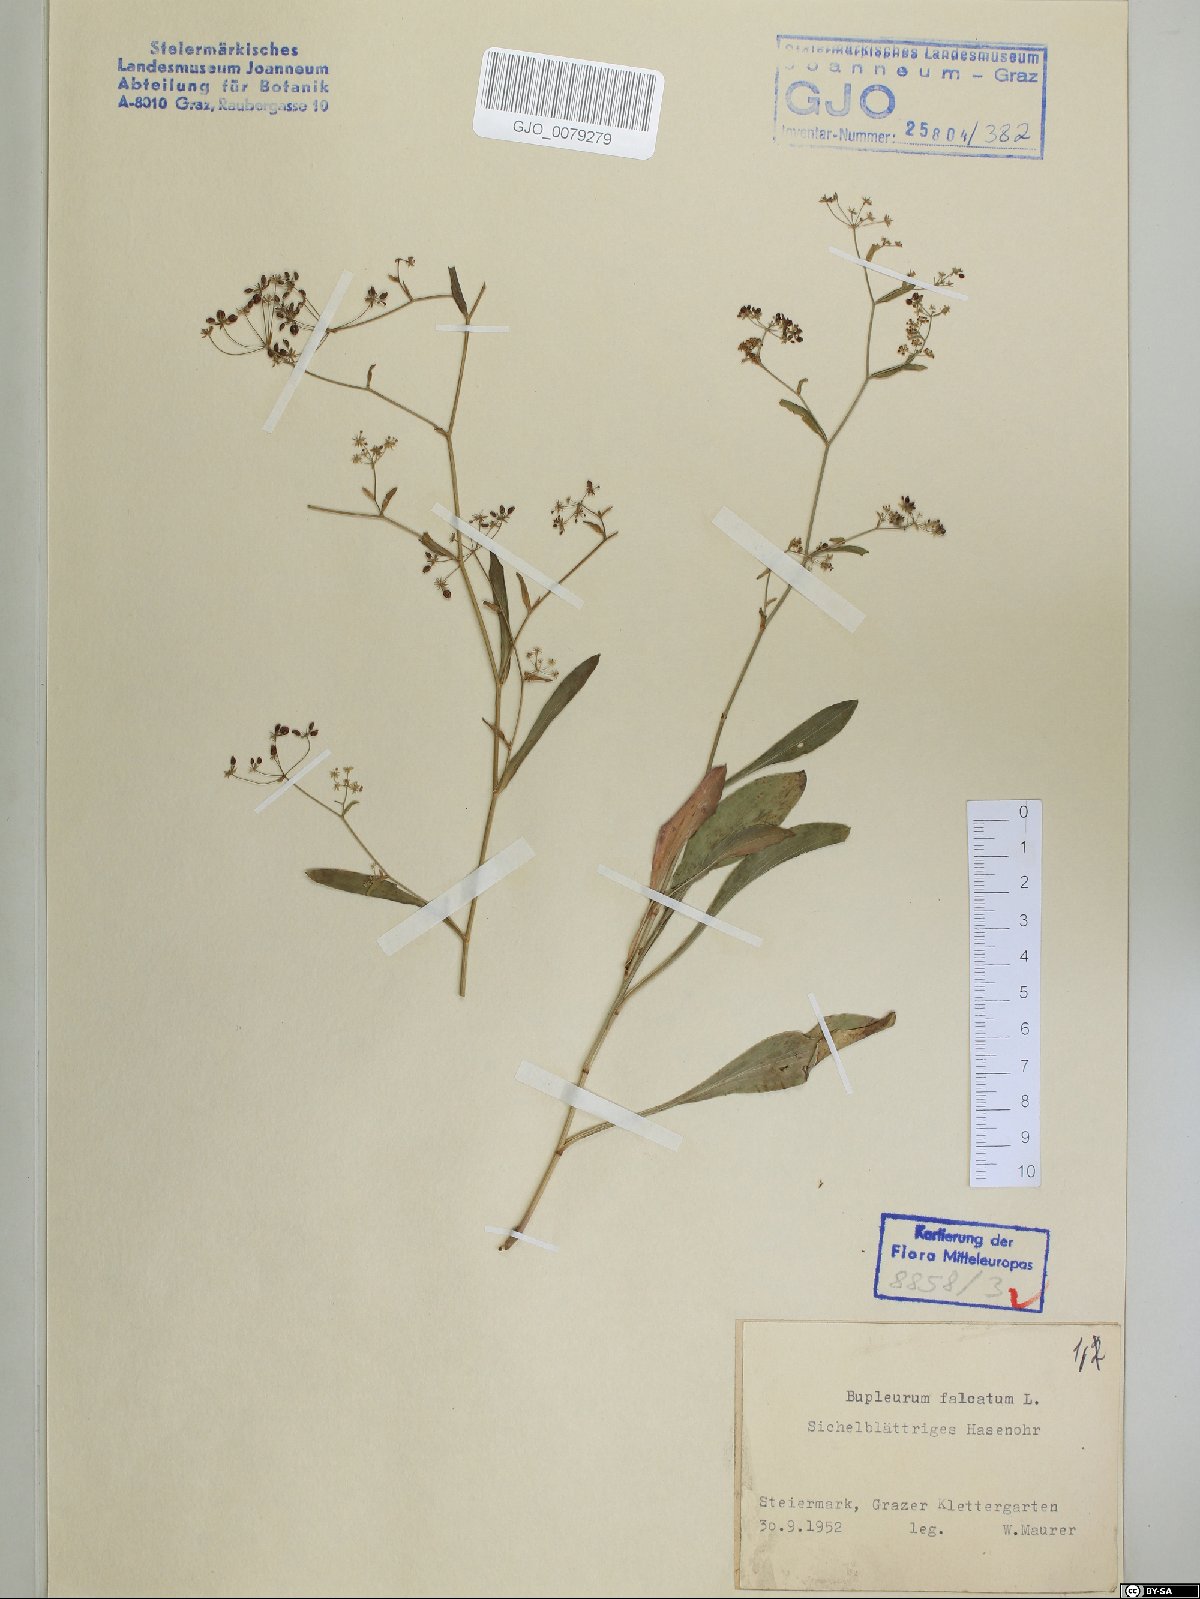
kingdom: Plantae
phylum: Tracheophyta
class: Magnoliopsida
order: Apiales
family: Apiaceae
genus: Bupleurum
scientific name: Bupleurum falcatum
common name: Sickle-leaved hare's-ear
